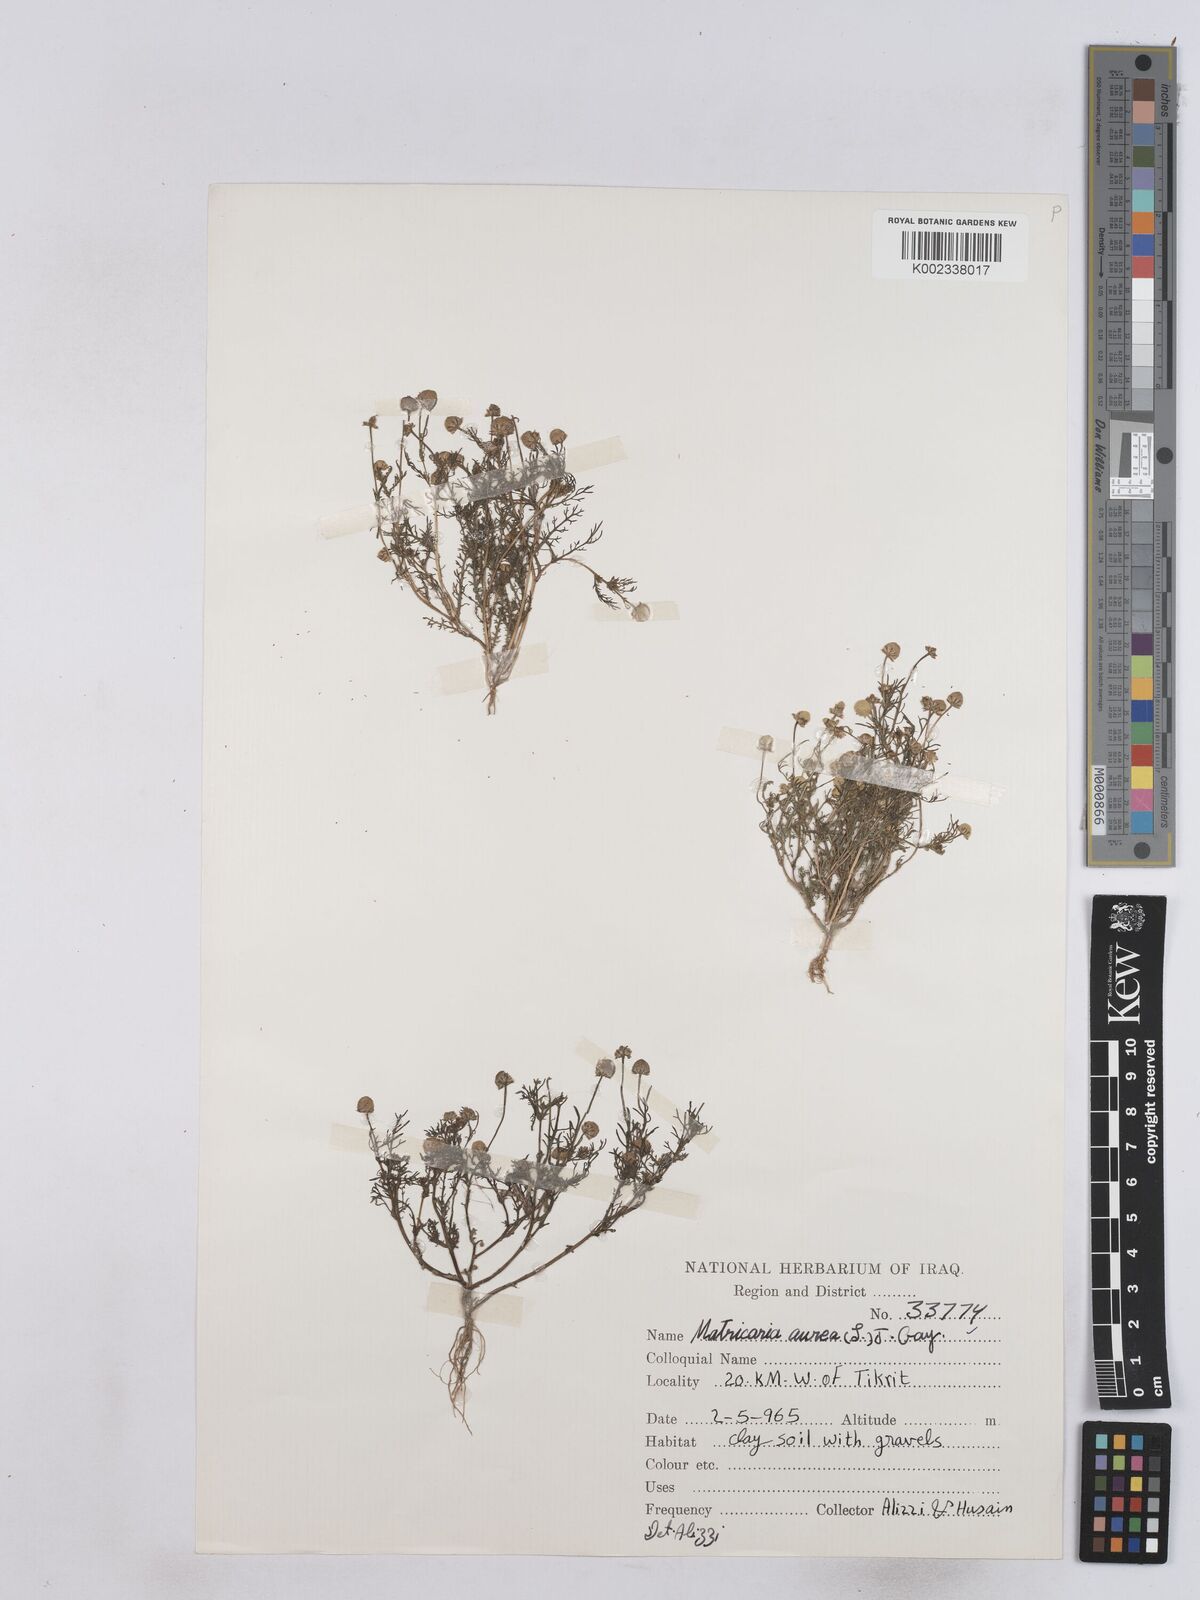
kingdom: Plantae
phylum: Tracheophyta
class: Magnoliopsida
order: Asterales
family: Asteraceae
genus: Matricaria
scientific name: Matricaria aurea
